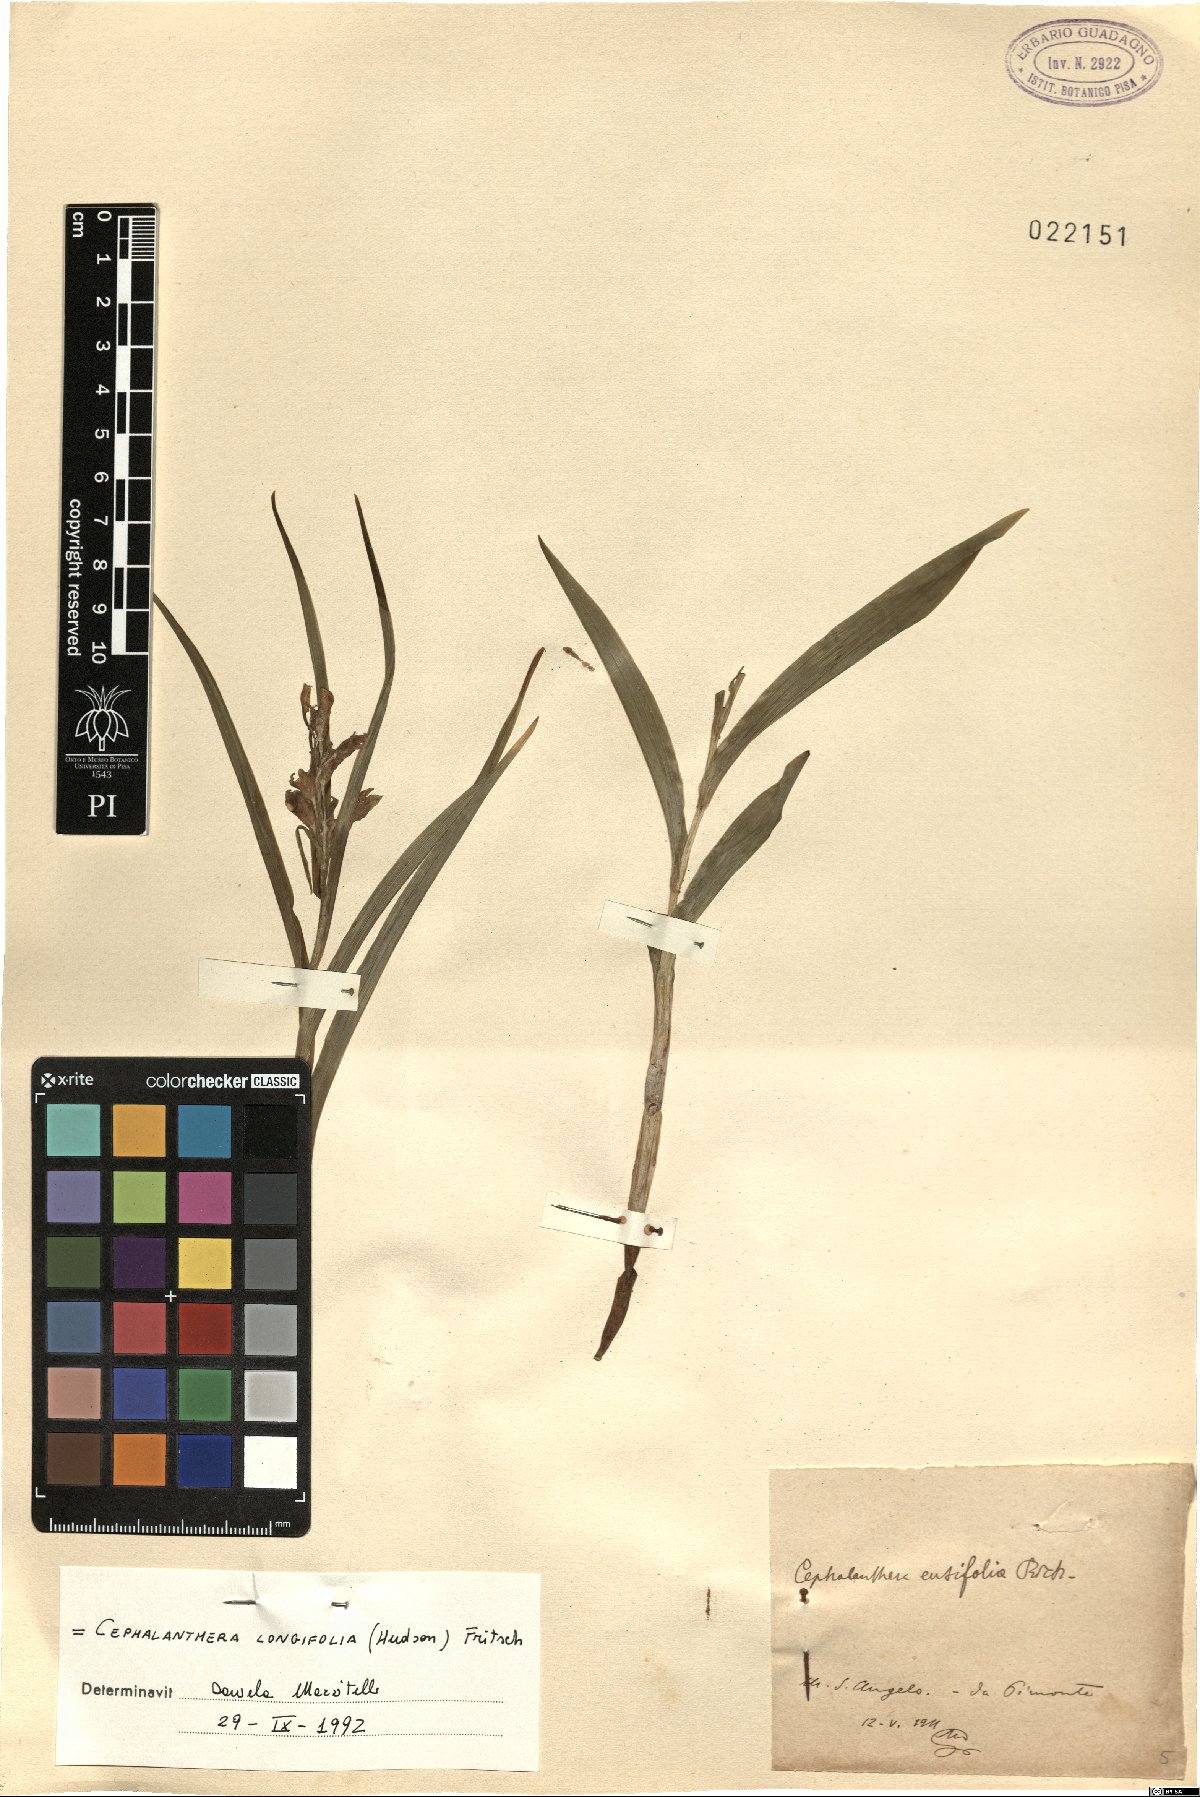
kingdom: Plantae
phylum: Tracheophyta
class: Liliopsida
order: Asparagales
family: Orchidaceae
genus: Cephalanthera
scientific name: Cephalanthera longifolia
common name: Narrow-leaved helleborine
